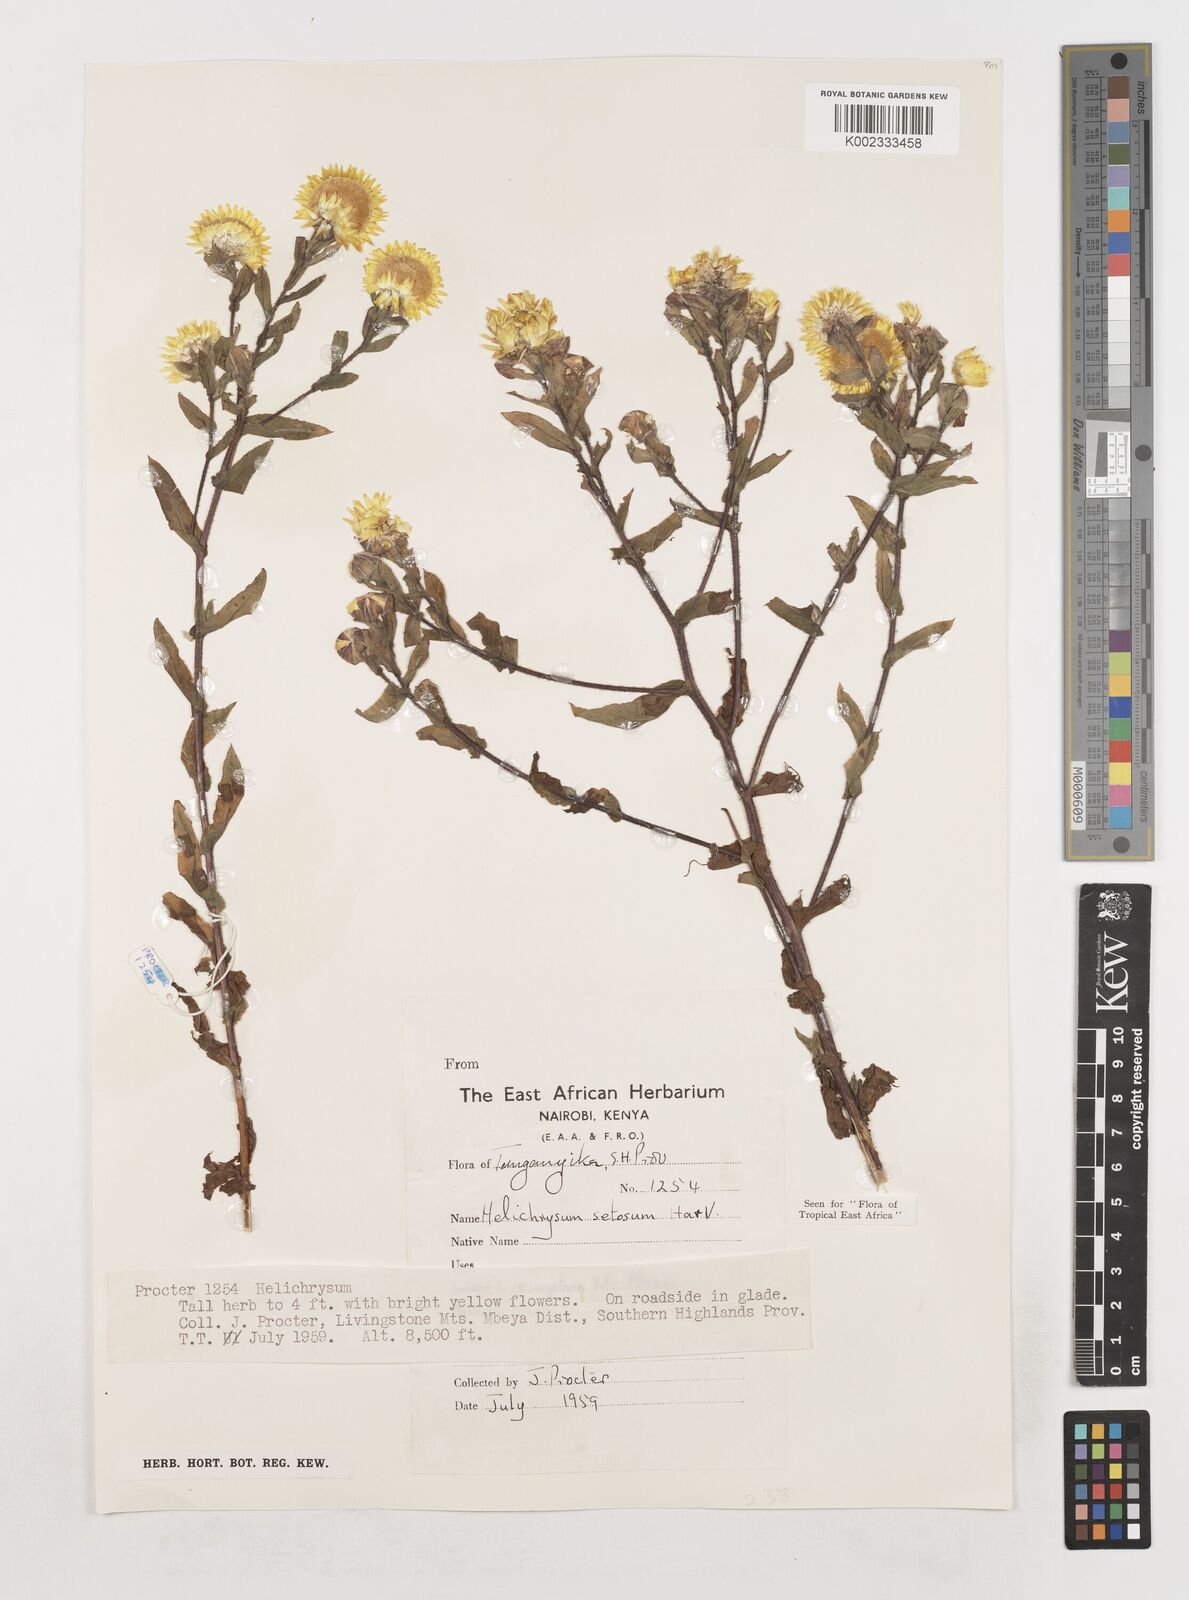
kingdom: Plantae
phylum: Tracheophyta
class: Magnoliopsida
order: Asterales
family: Asteraceae
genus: Helichrysum
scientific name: Helichrysum setosum
